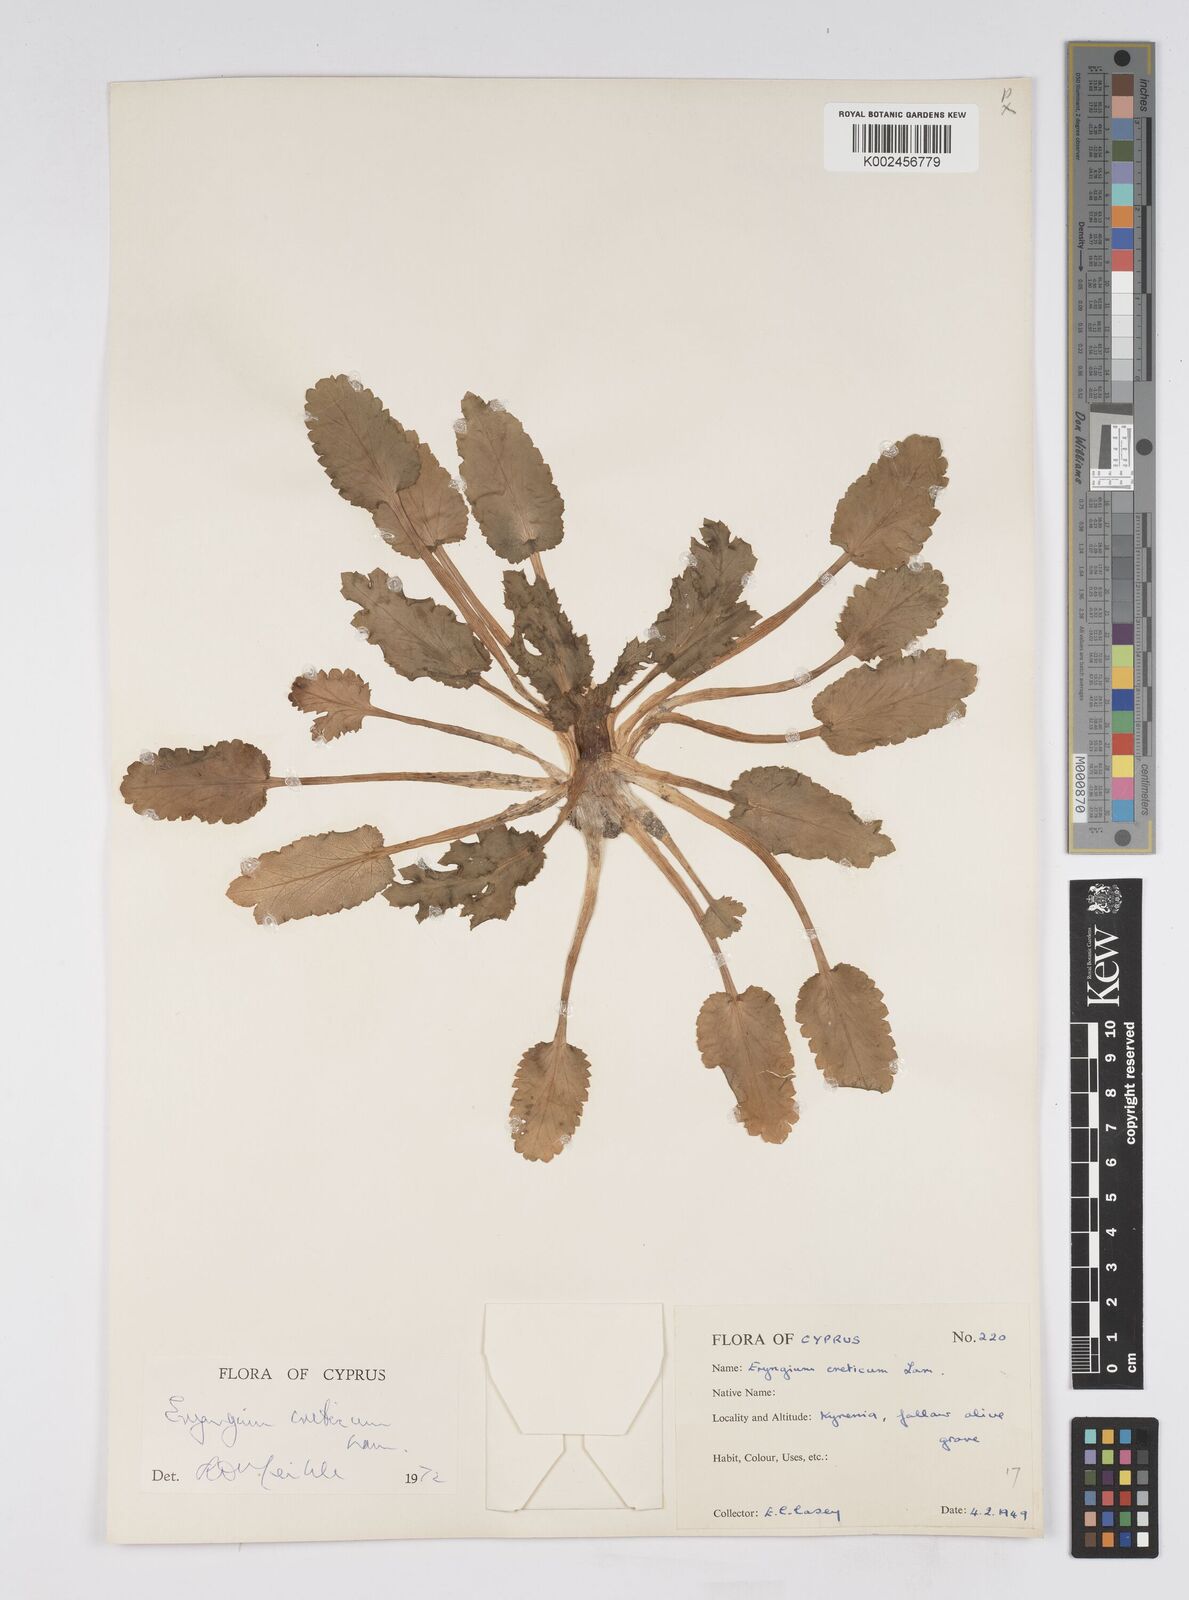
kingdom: Plantae
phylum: Tracheophyta
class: Magnoliopsida
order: Apiales
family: Apiaceae
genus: Eryngium
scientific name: Eryngium creticum
